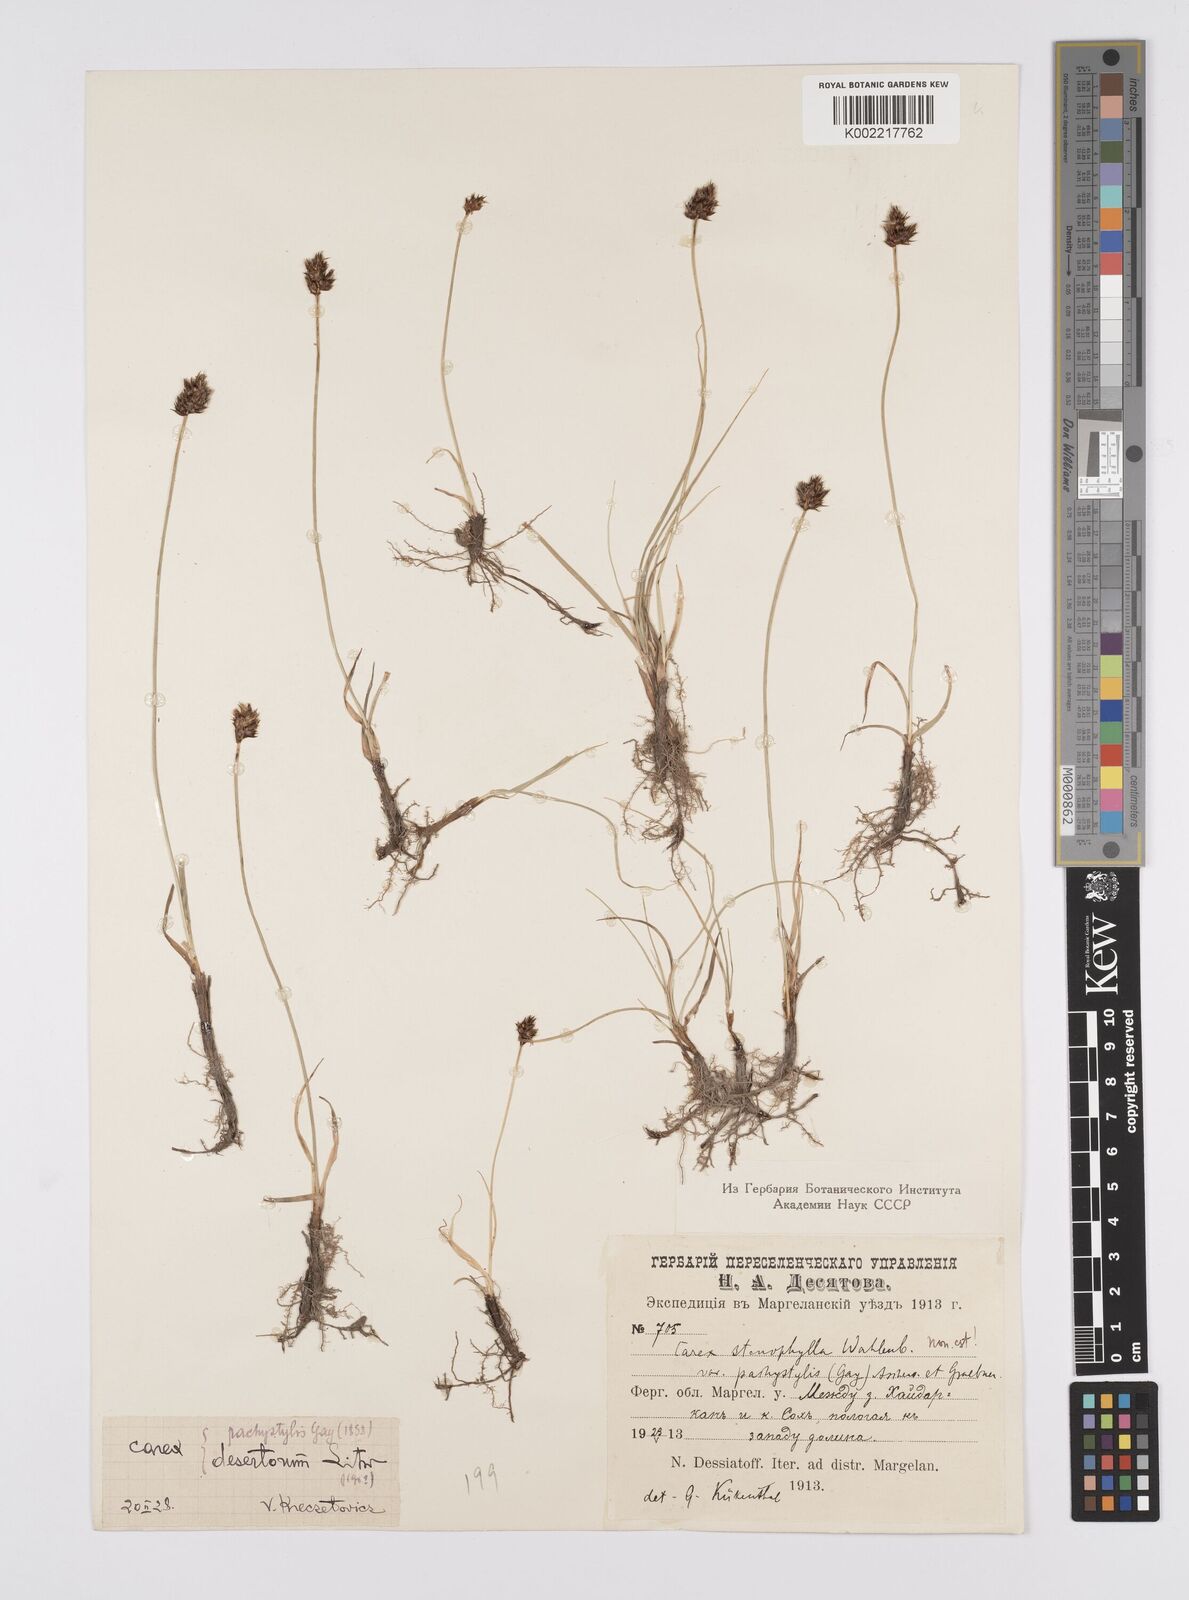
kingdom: Plantae
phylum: Tracheophyta
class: Liliopsida
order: Poales
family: Cyperaceae
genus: Carex
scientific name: Carex stenophylla
